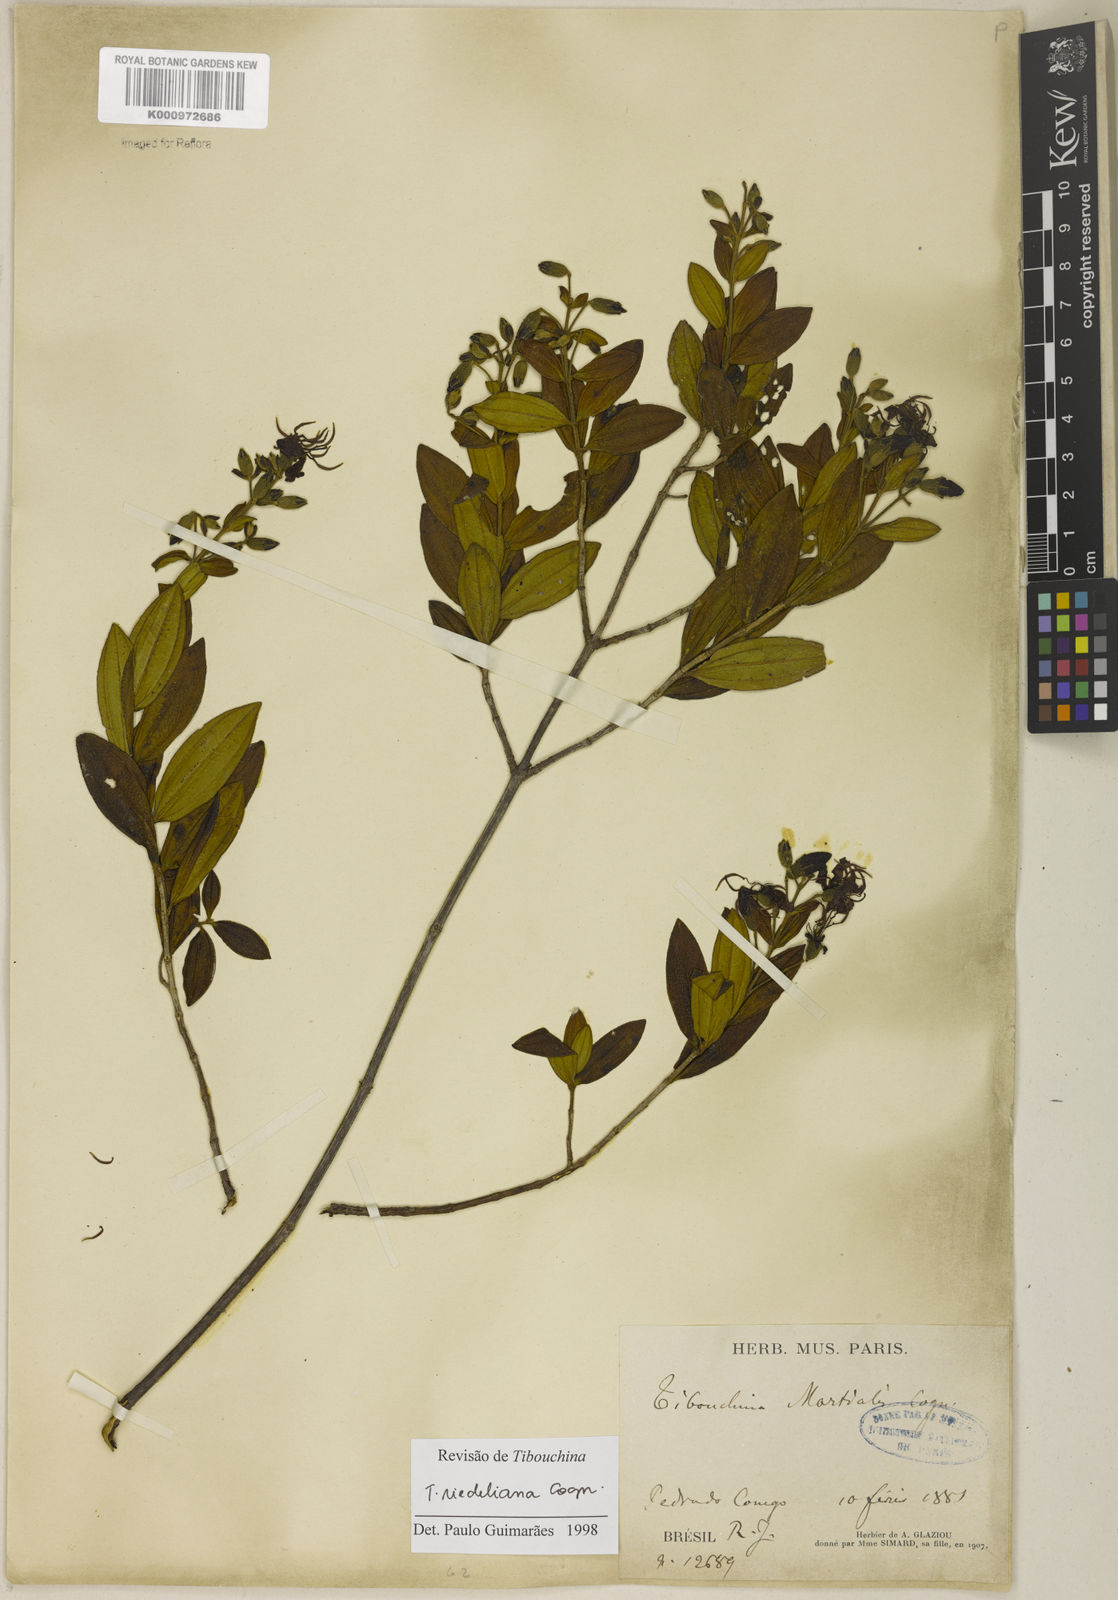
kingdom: Plantae
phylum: Tracheophyta
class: Magnoliopsida
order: Myrtales
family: Melastomataceae
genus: Pleroma
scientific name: Pleroma riedelianum
